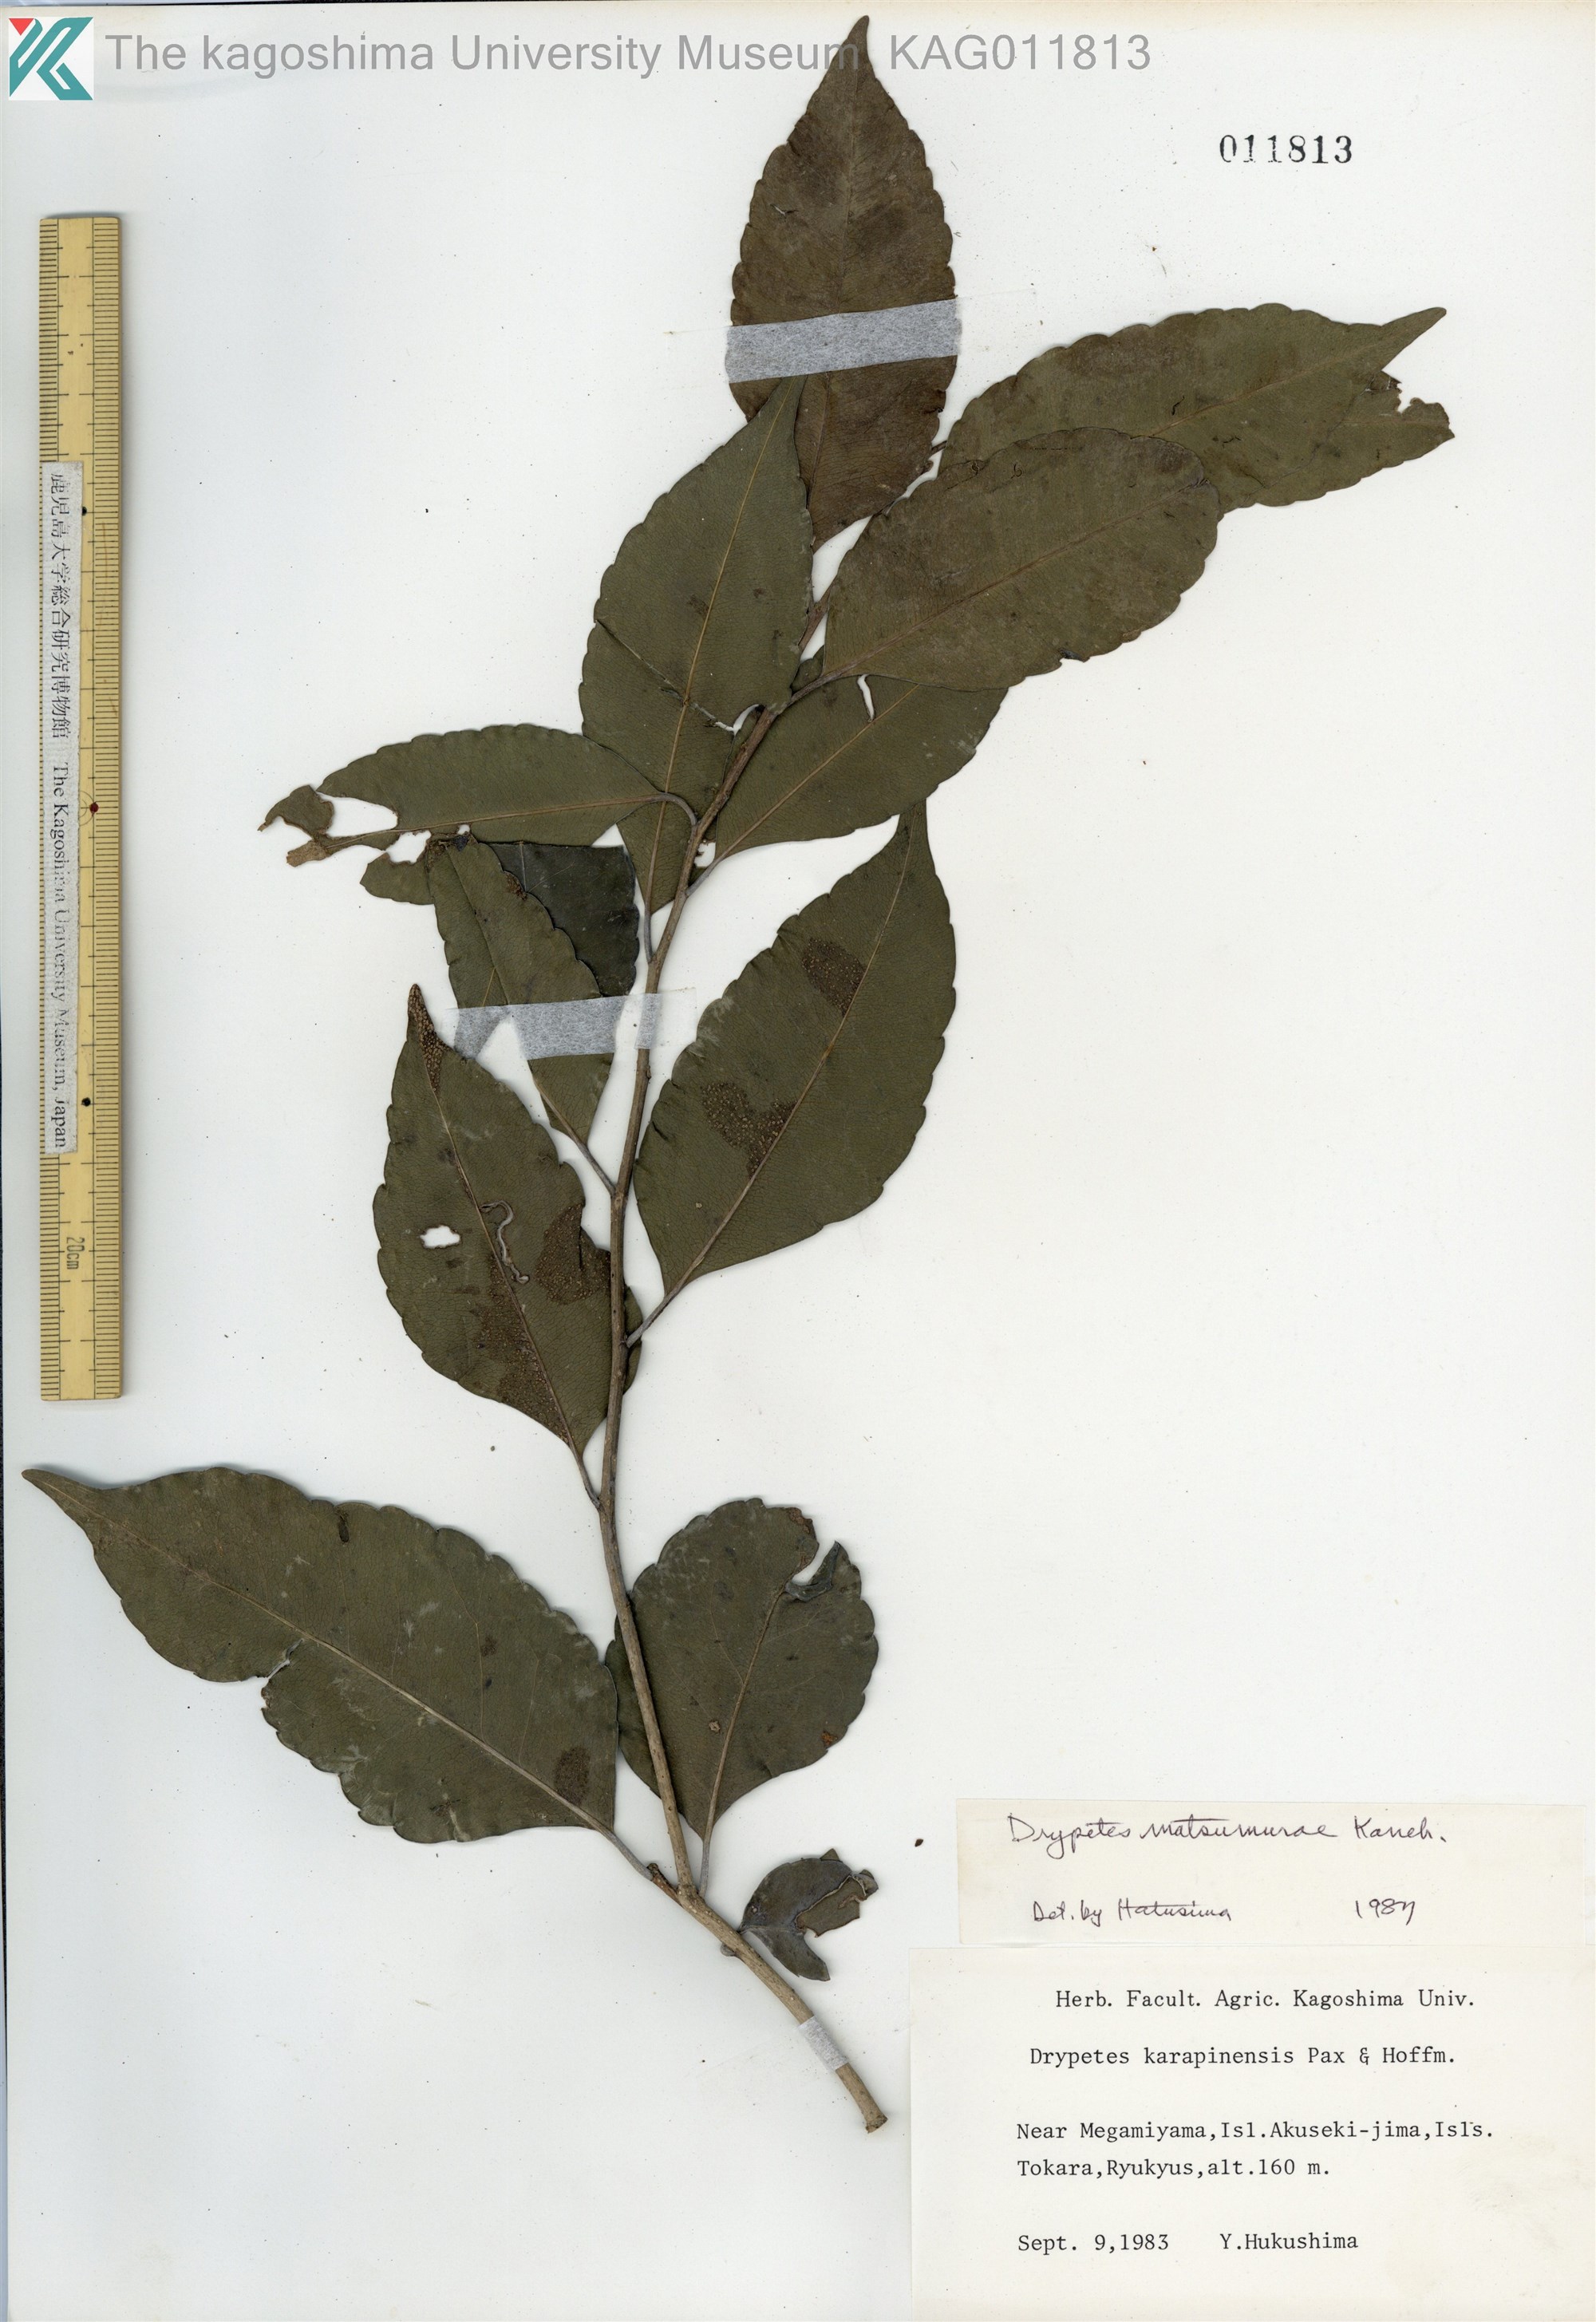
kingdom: Plantae
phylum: Tracheophyta
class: Magnoliopsida
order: Malpighiales
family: Putranjivaceae
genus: Putranjiva
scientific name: Putranjiva matsumurae
